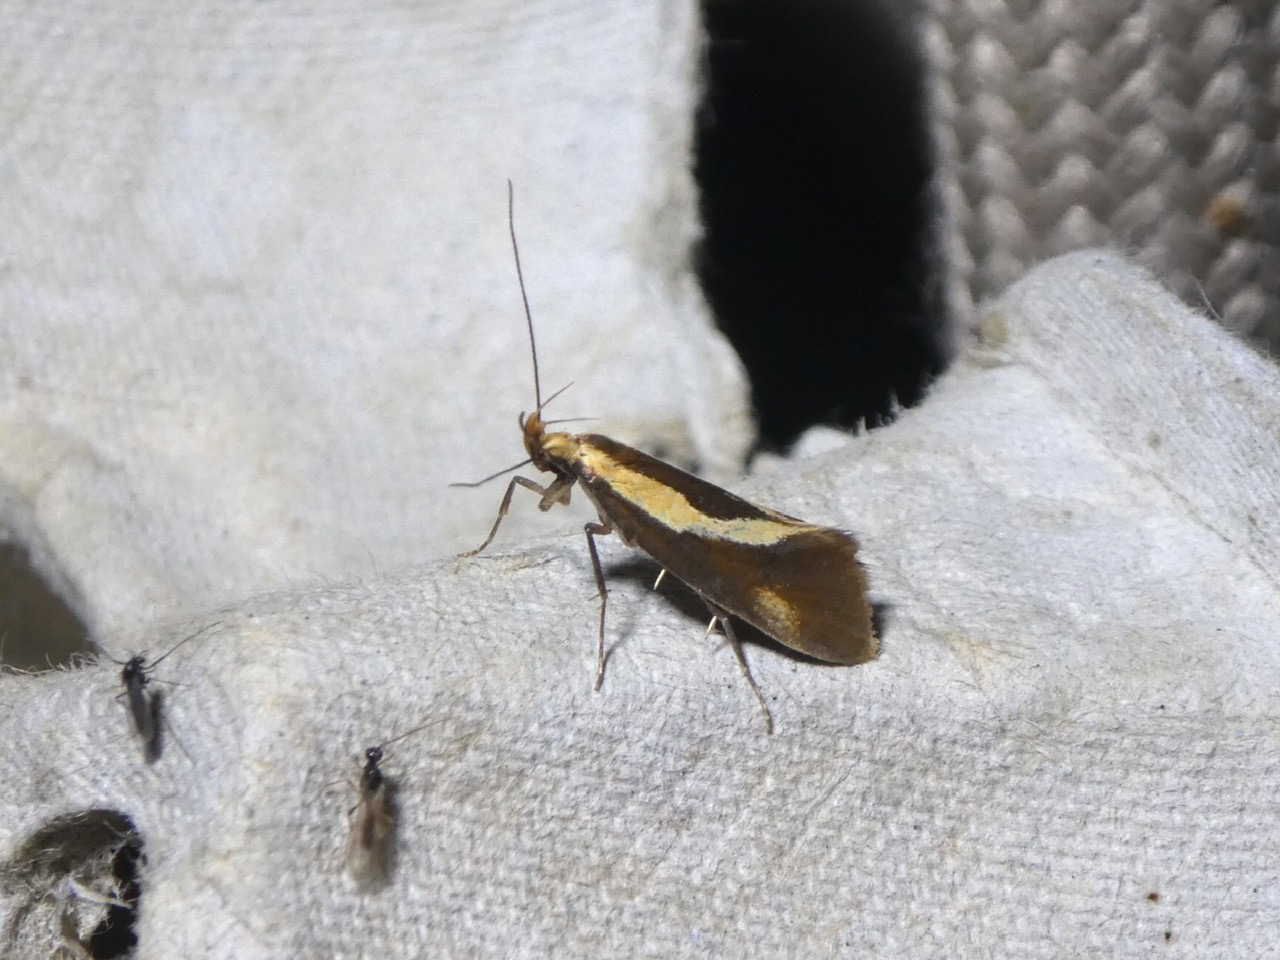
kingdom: Animalia
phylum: Arthropoda
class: Insecta
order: Lepidoptera
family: Oecophoridae
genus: Harpella
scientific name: Harpella forficella
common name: Kæmpeprydvinge
